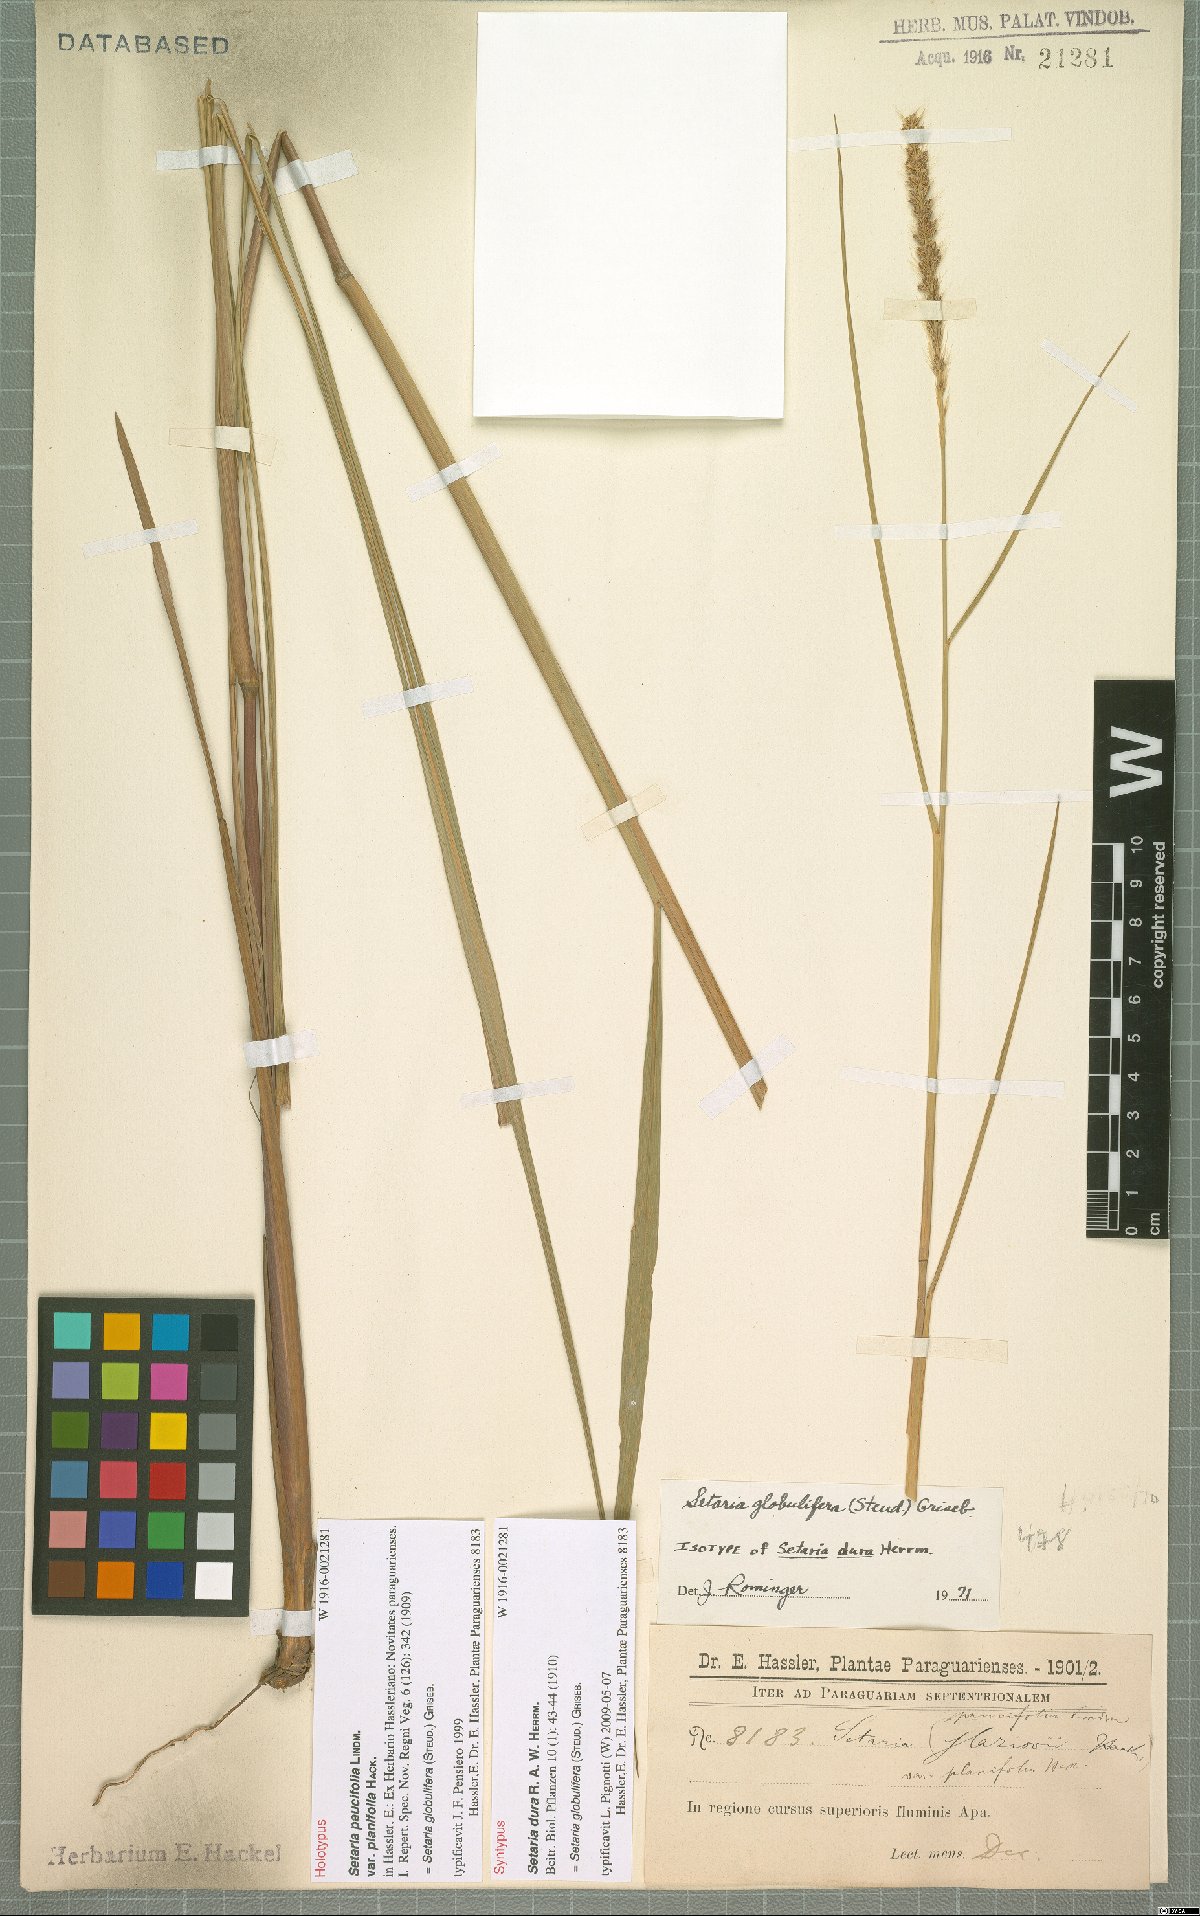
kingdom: Plantae
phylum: Tracheophyta
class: Liliopsida
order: Poales
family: Poaceae
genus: Setaria
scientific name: Setaria globulifera
